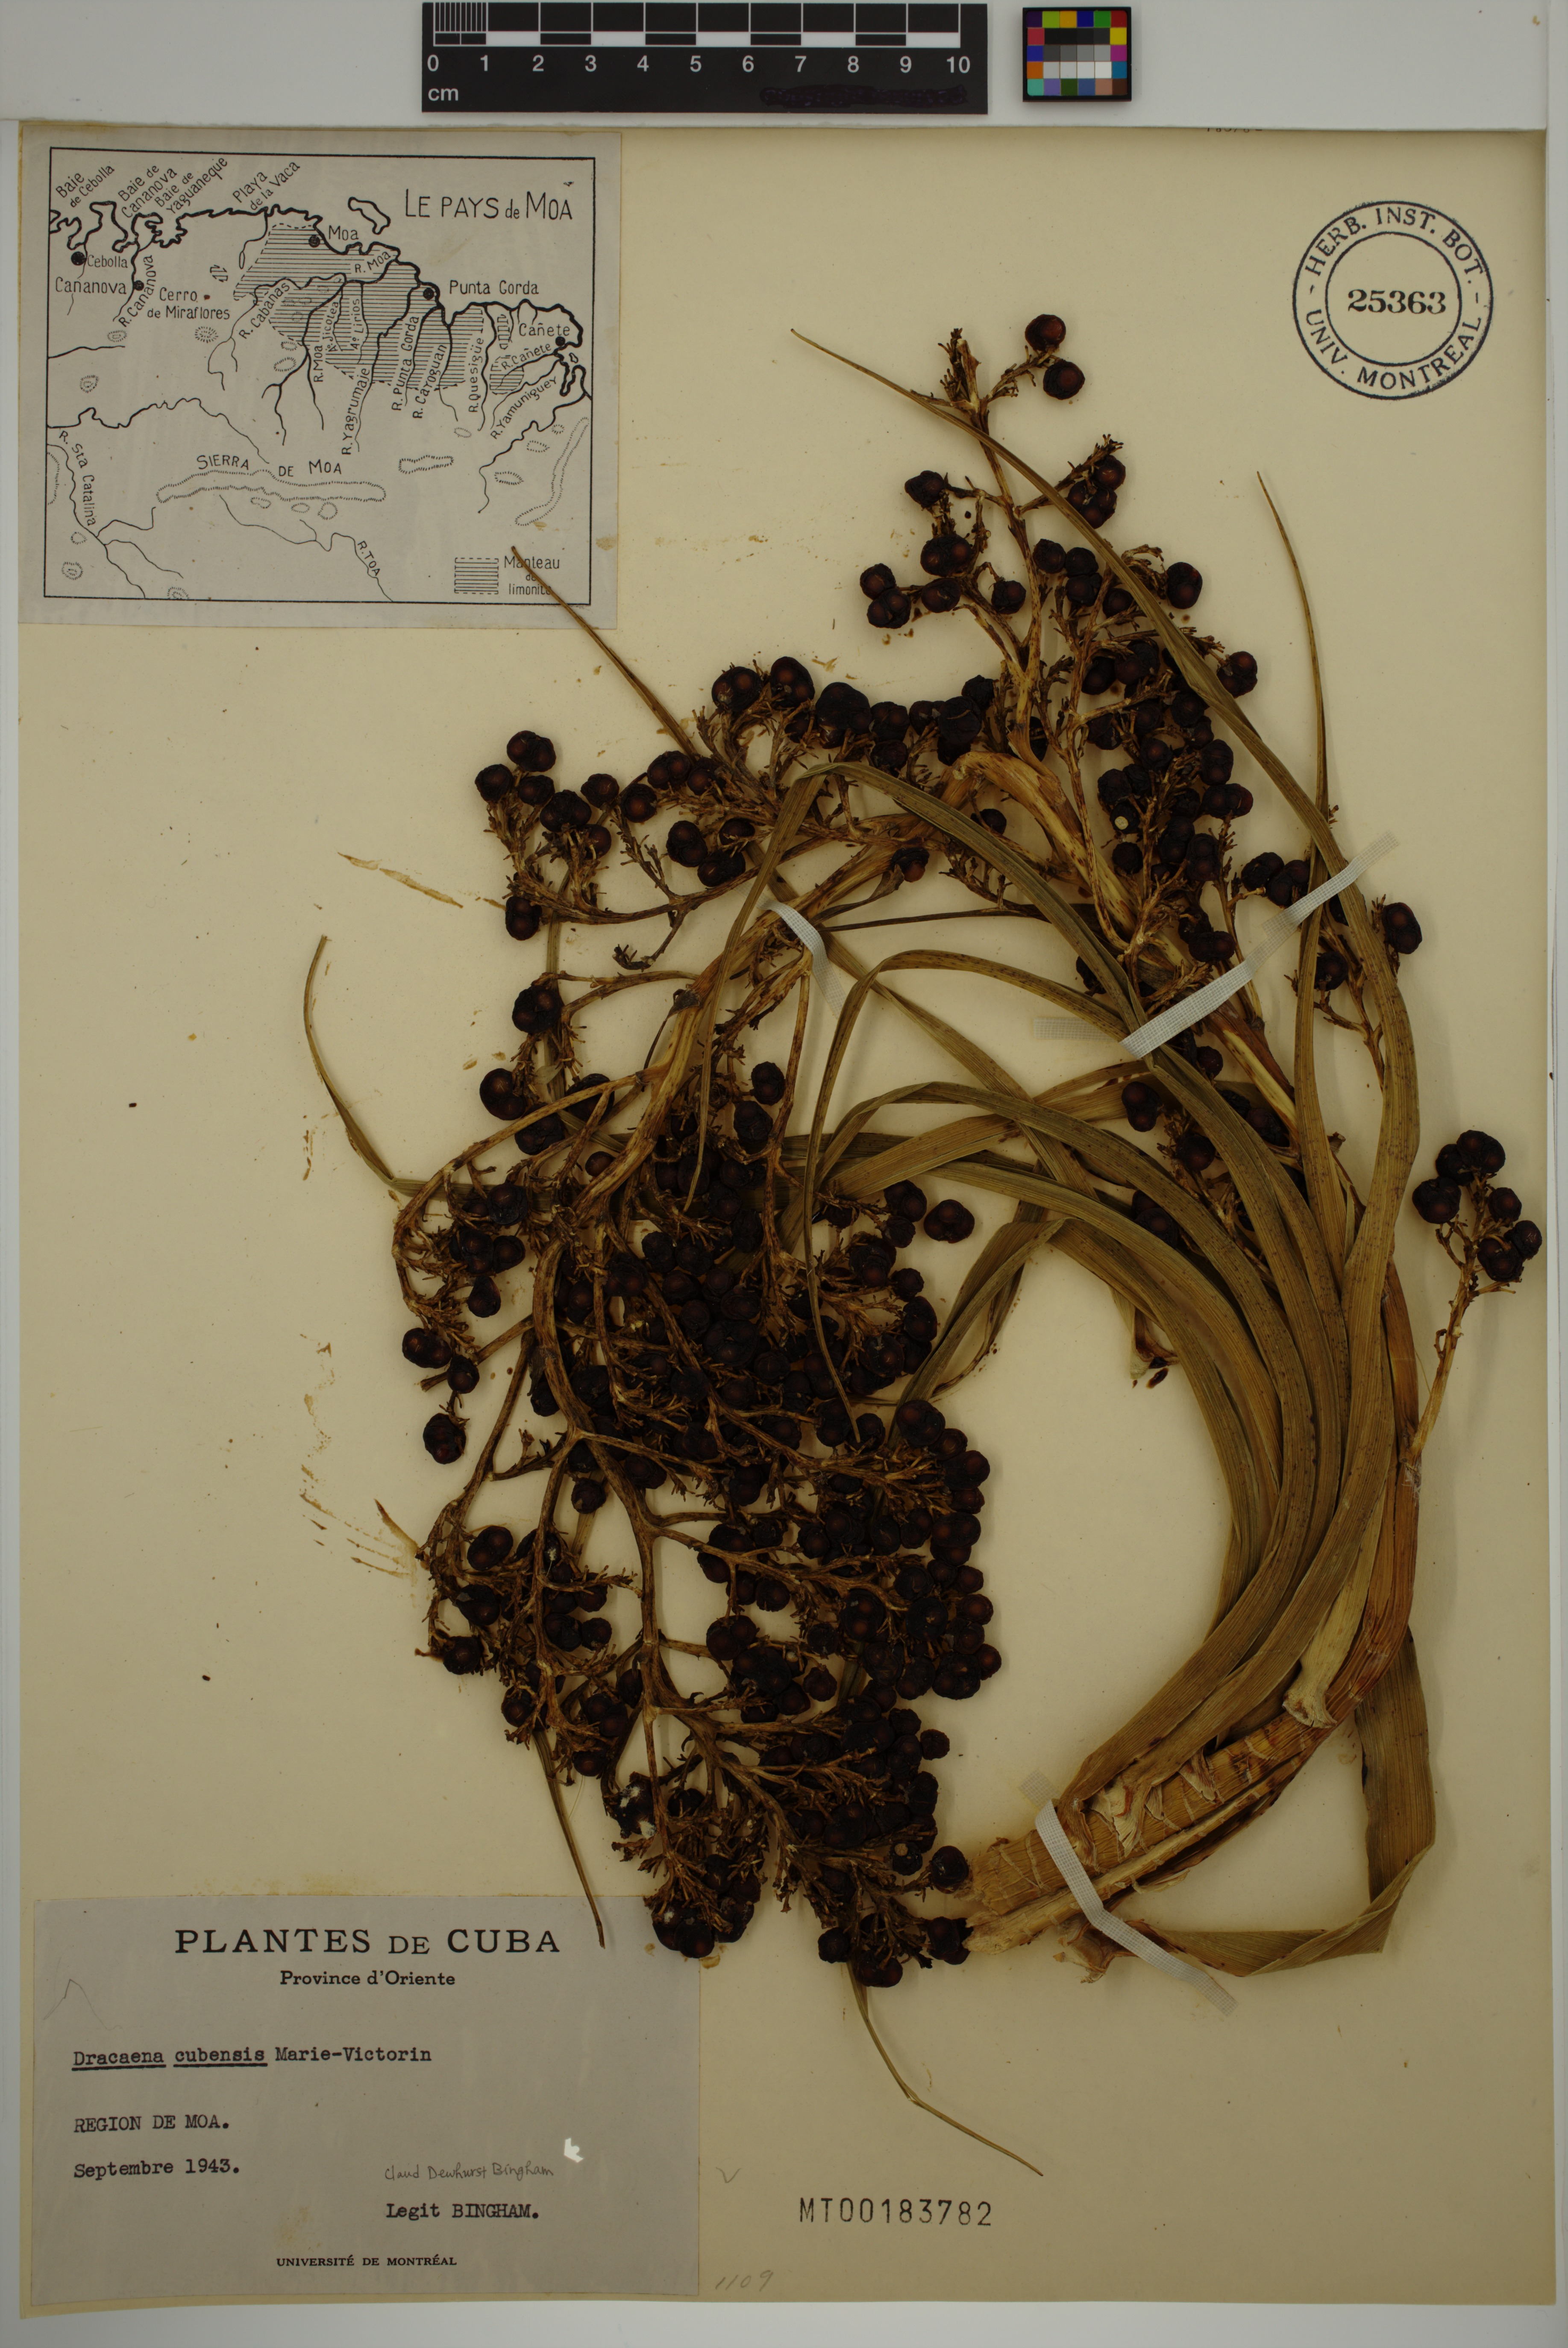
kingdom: Plantae
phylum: Tracheophyta
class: Liliopsida
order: Asparagales
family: Asparagaceae
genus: Dracaena
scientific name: Dracaena cubensis
